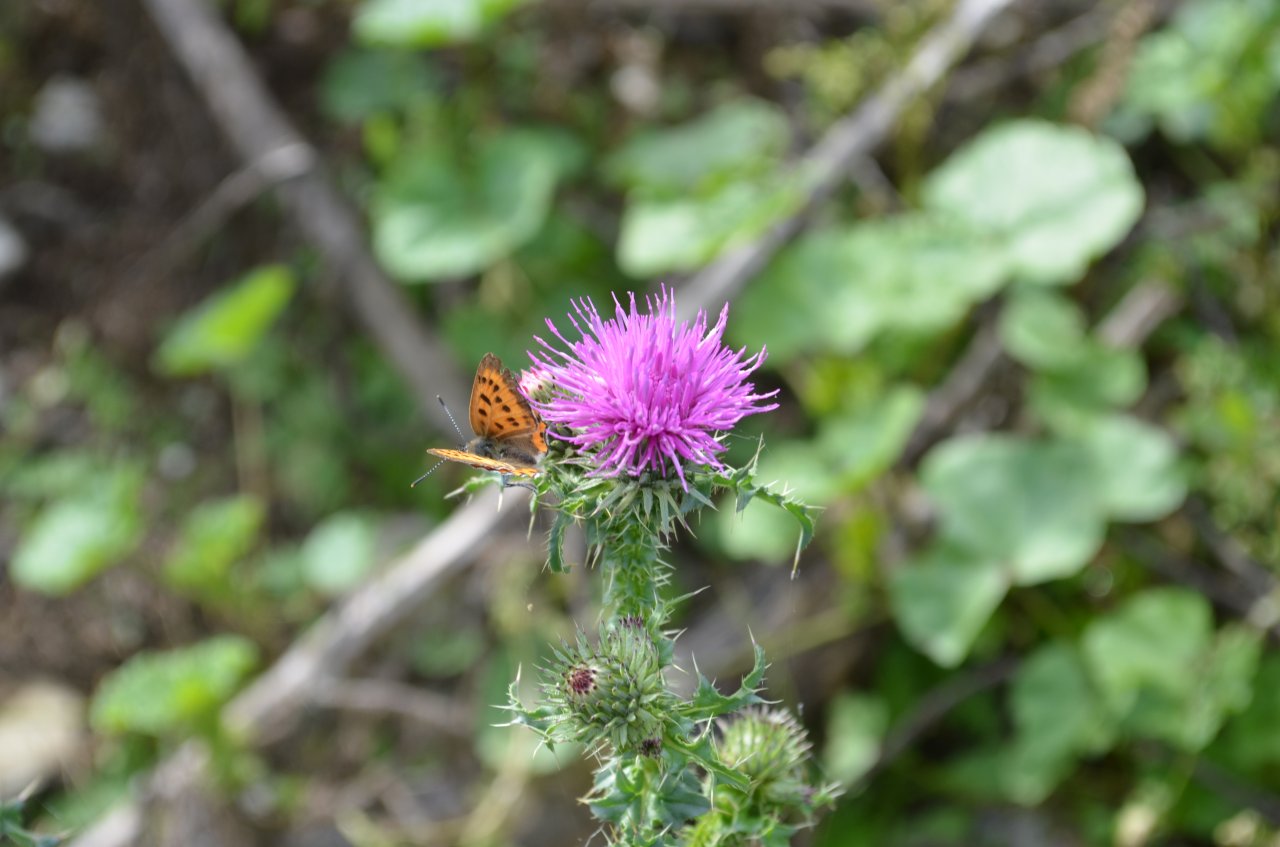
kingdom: Animalia
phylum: Arthropoda
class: Insecta
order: Lepidoptera
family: Sesiidae
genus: Sesia
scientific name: Sesia Lycaena hyllus
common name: Bronze Copper
